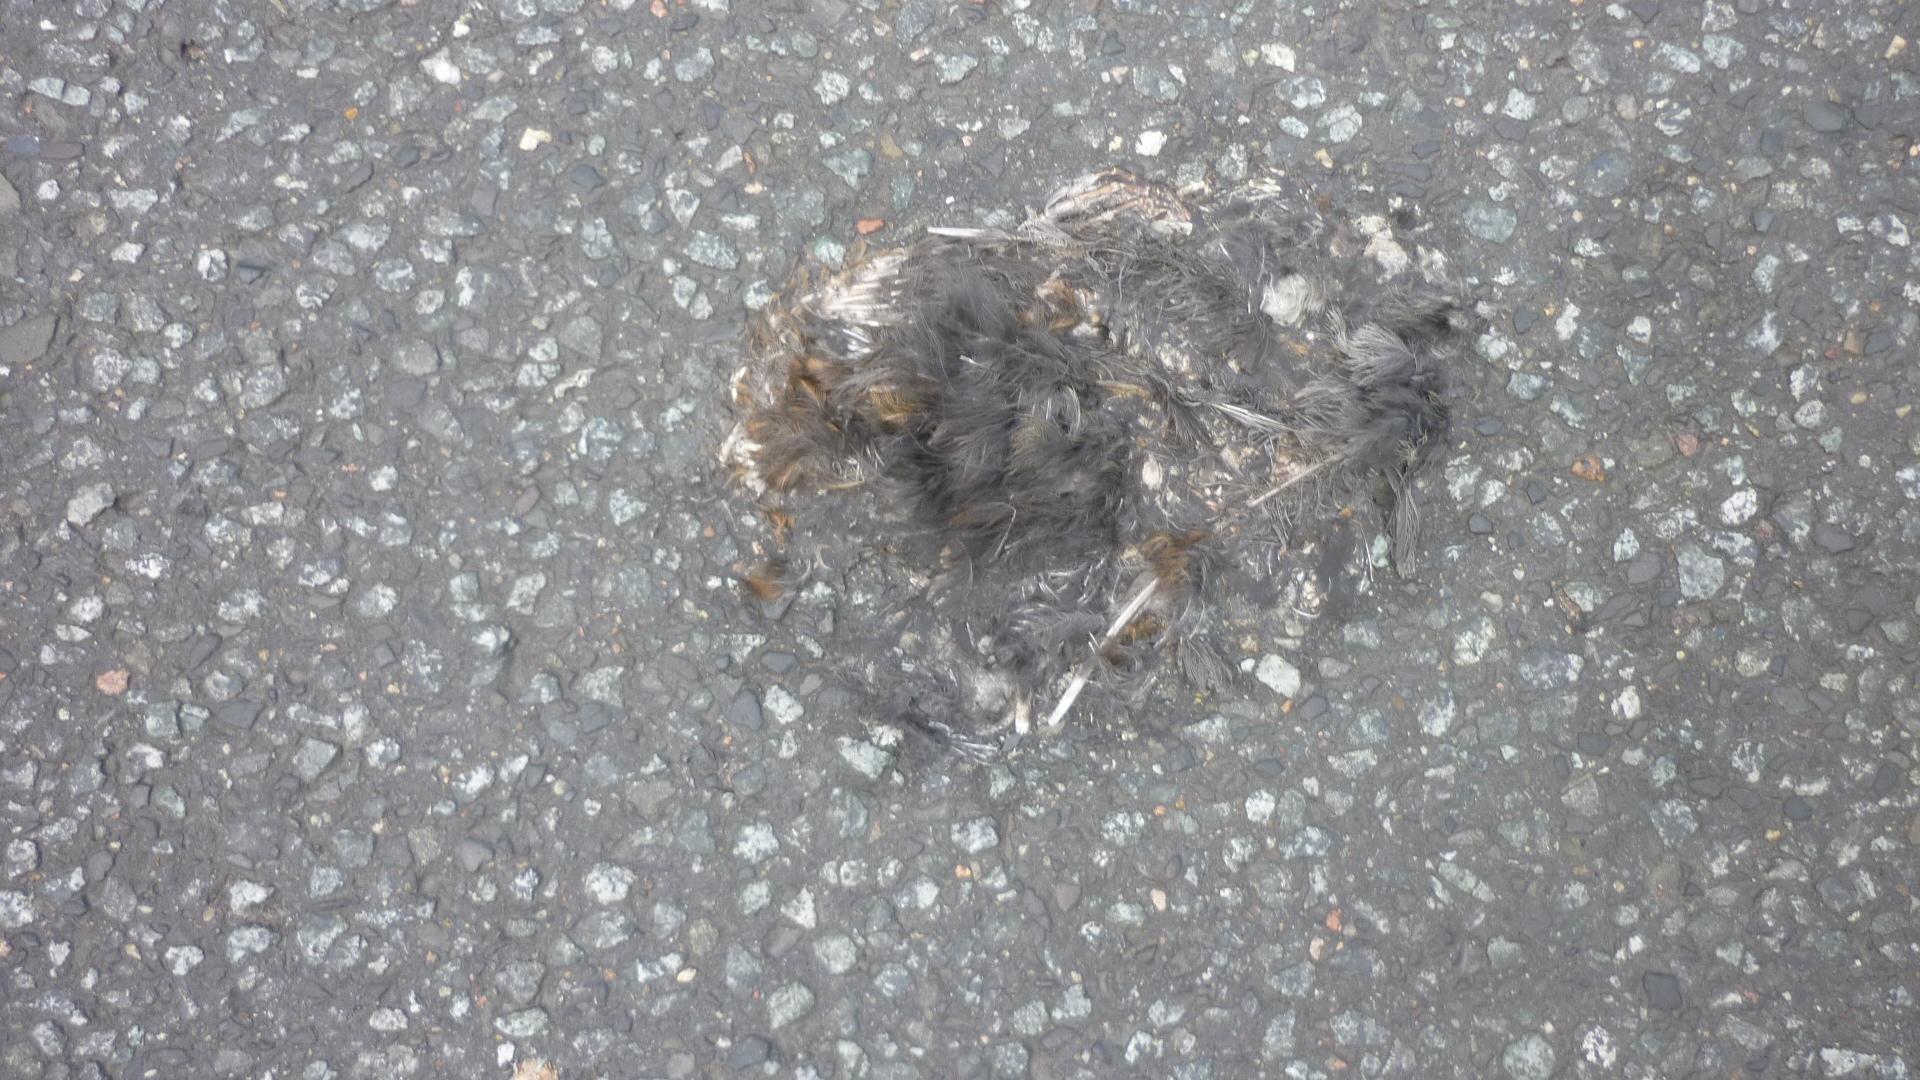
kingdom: Animalia
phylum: Chordata
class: Aves
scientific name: Aves
